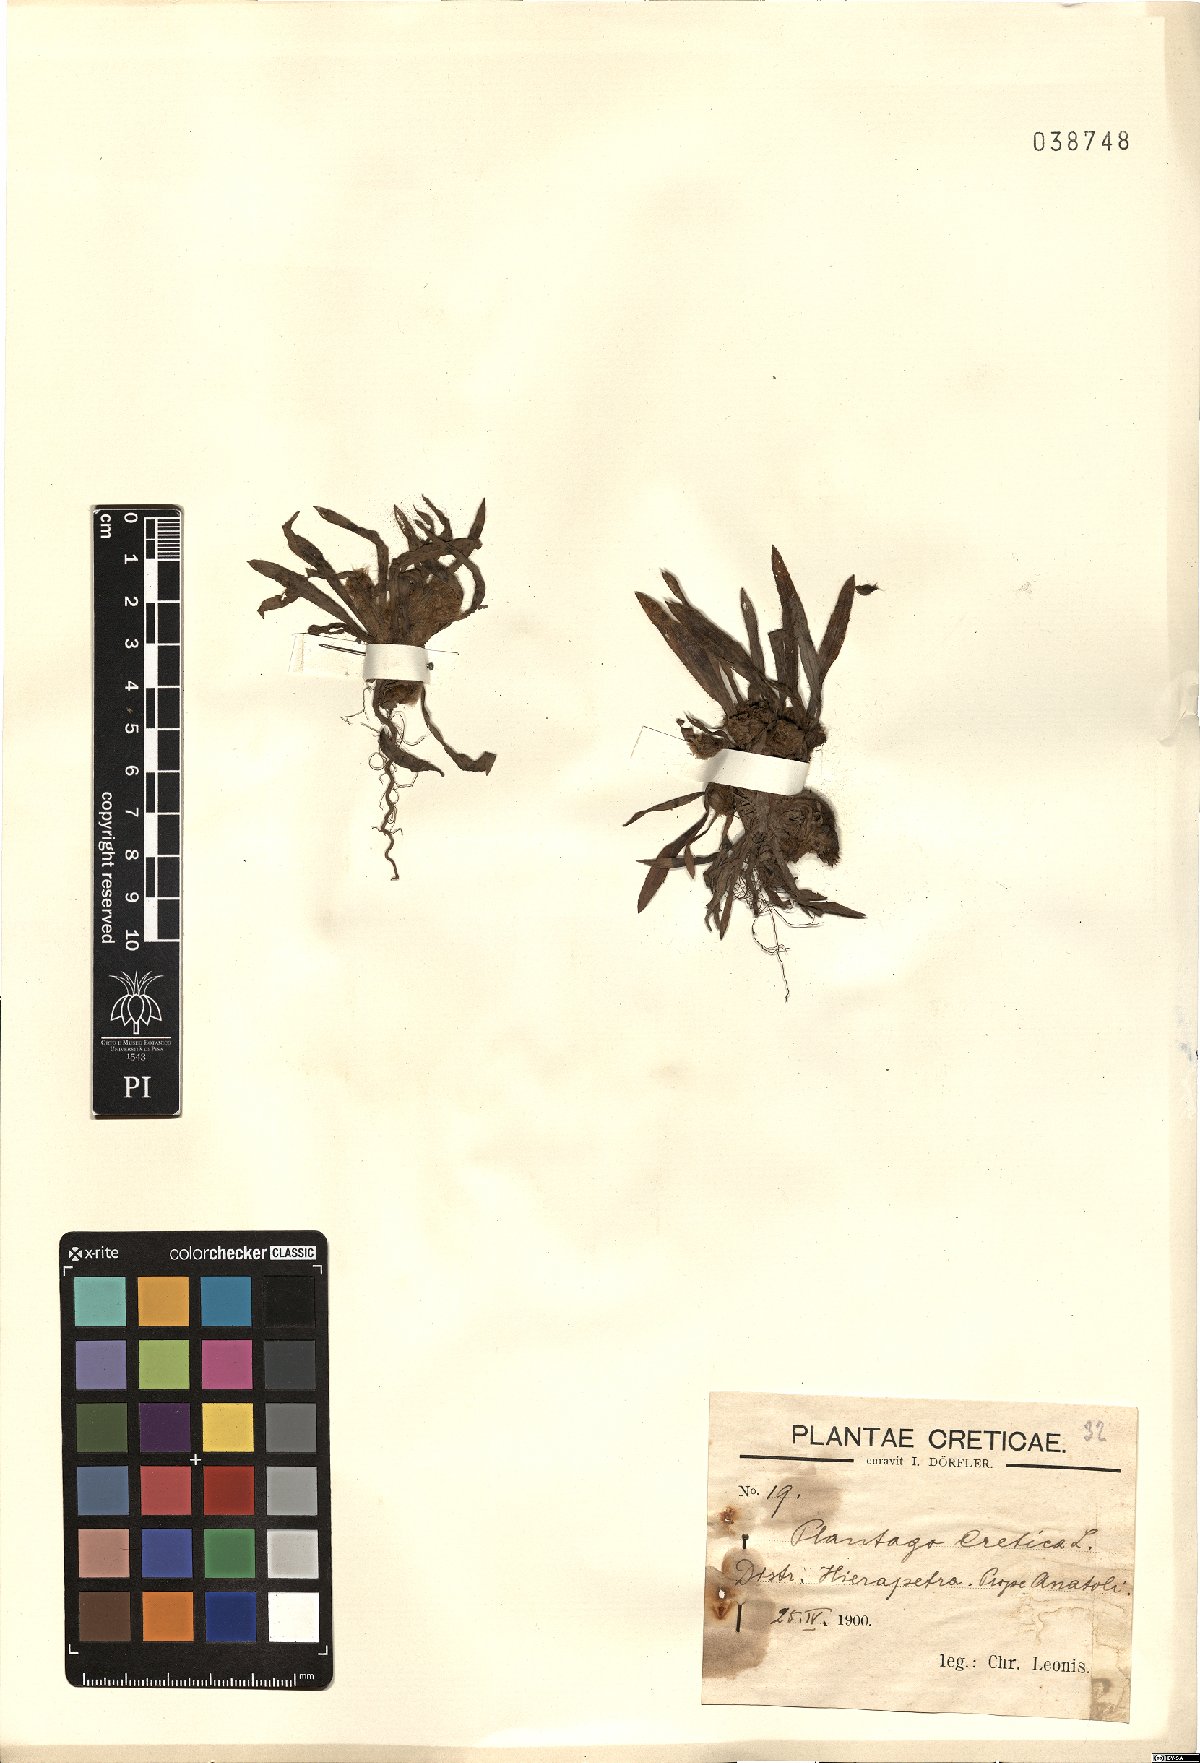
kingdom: Plantae
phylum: Tracheophyta
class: Magnoliopsida
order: Lamiales
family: Plantaginaceae
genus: Plantago
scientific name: Plantago cretica
